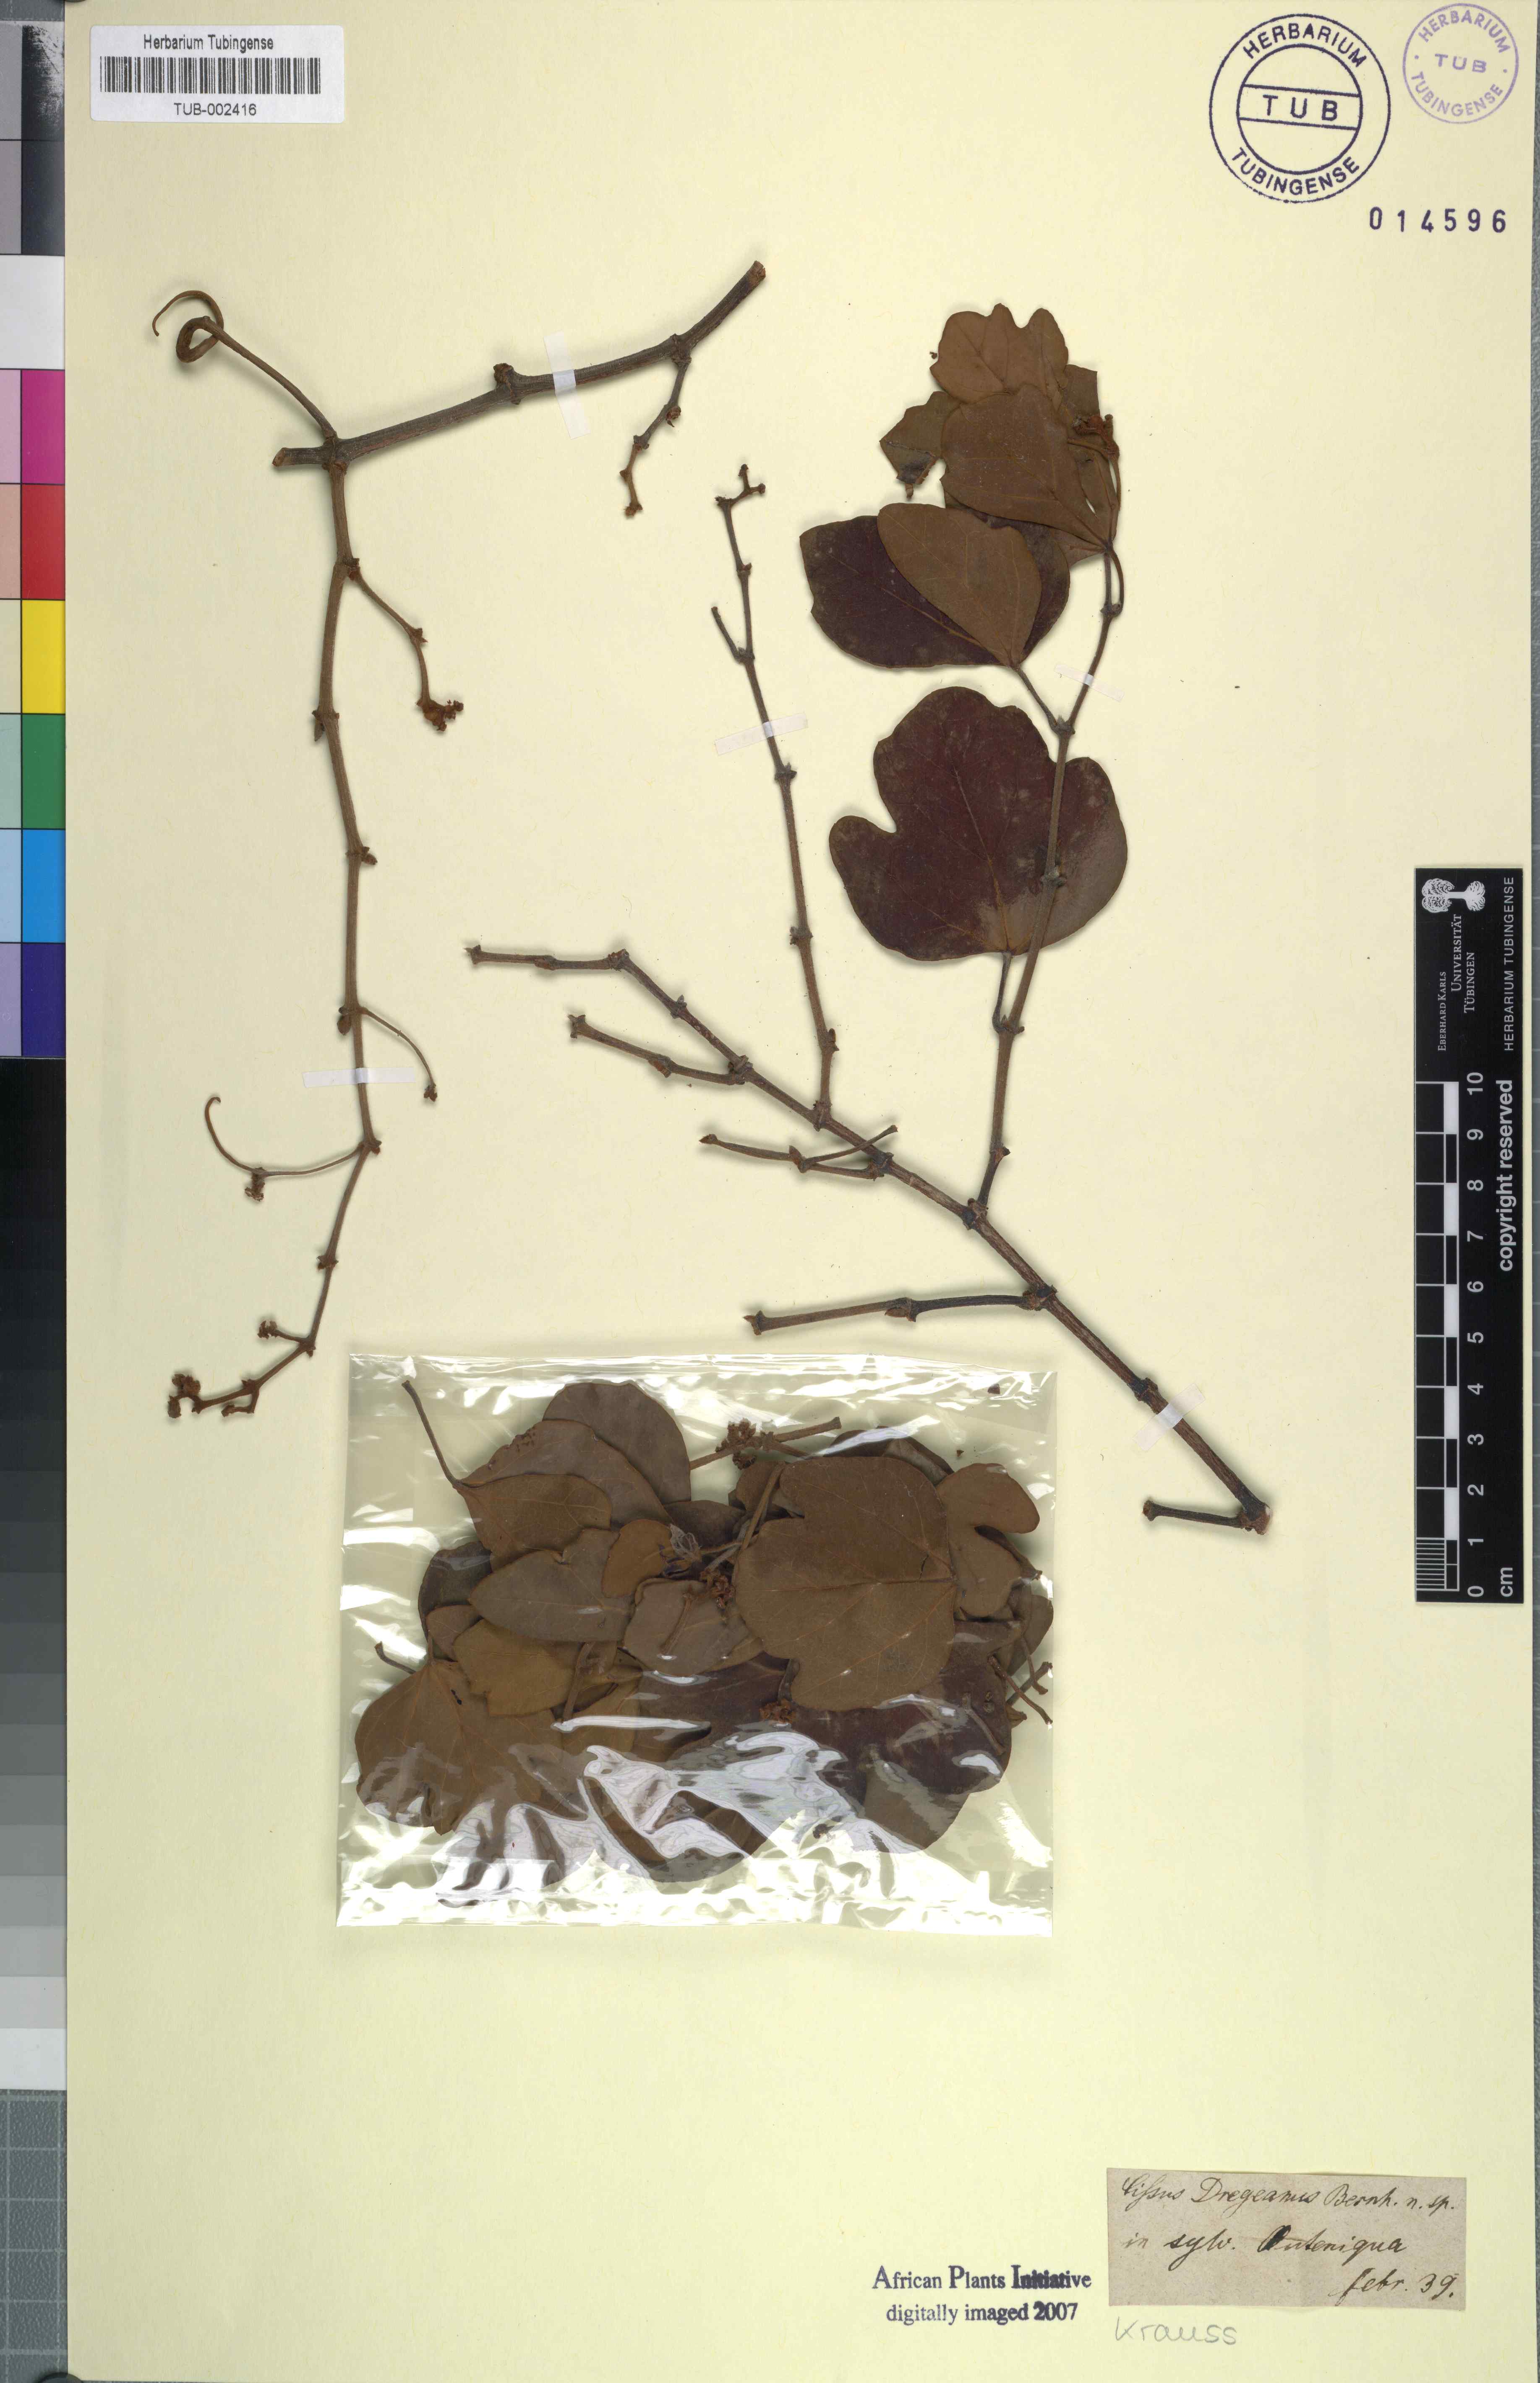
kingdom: Plantae
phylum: Tracheophyta
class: Magnoliopsida
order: Vitales
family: Vitaceae
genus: Vitis
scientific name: Vitis capensis
